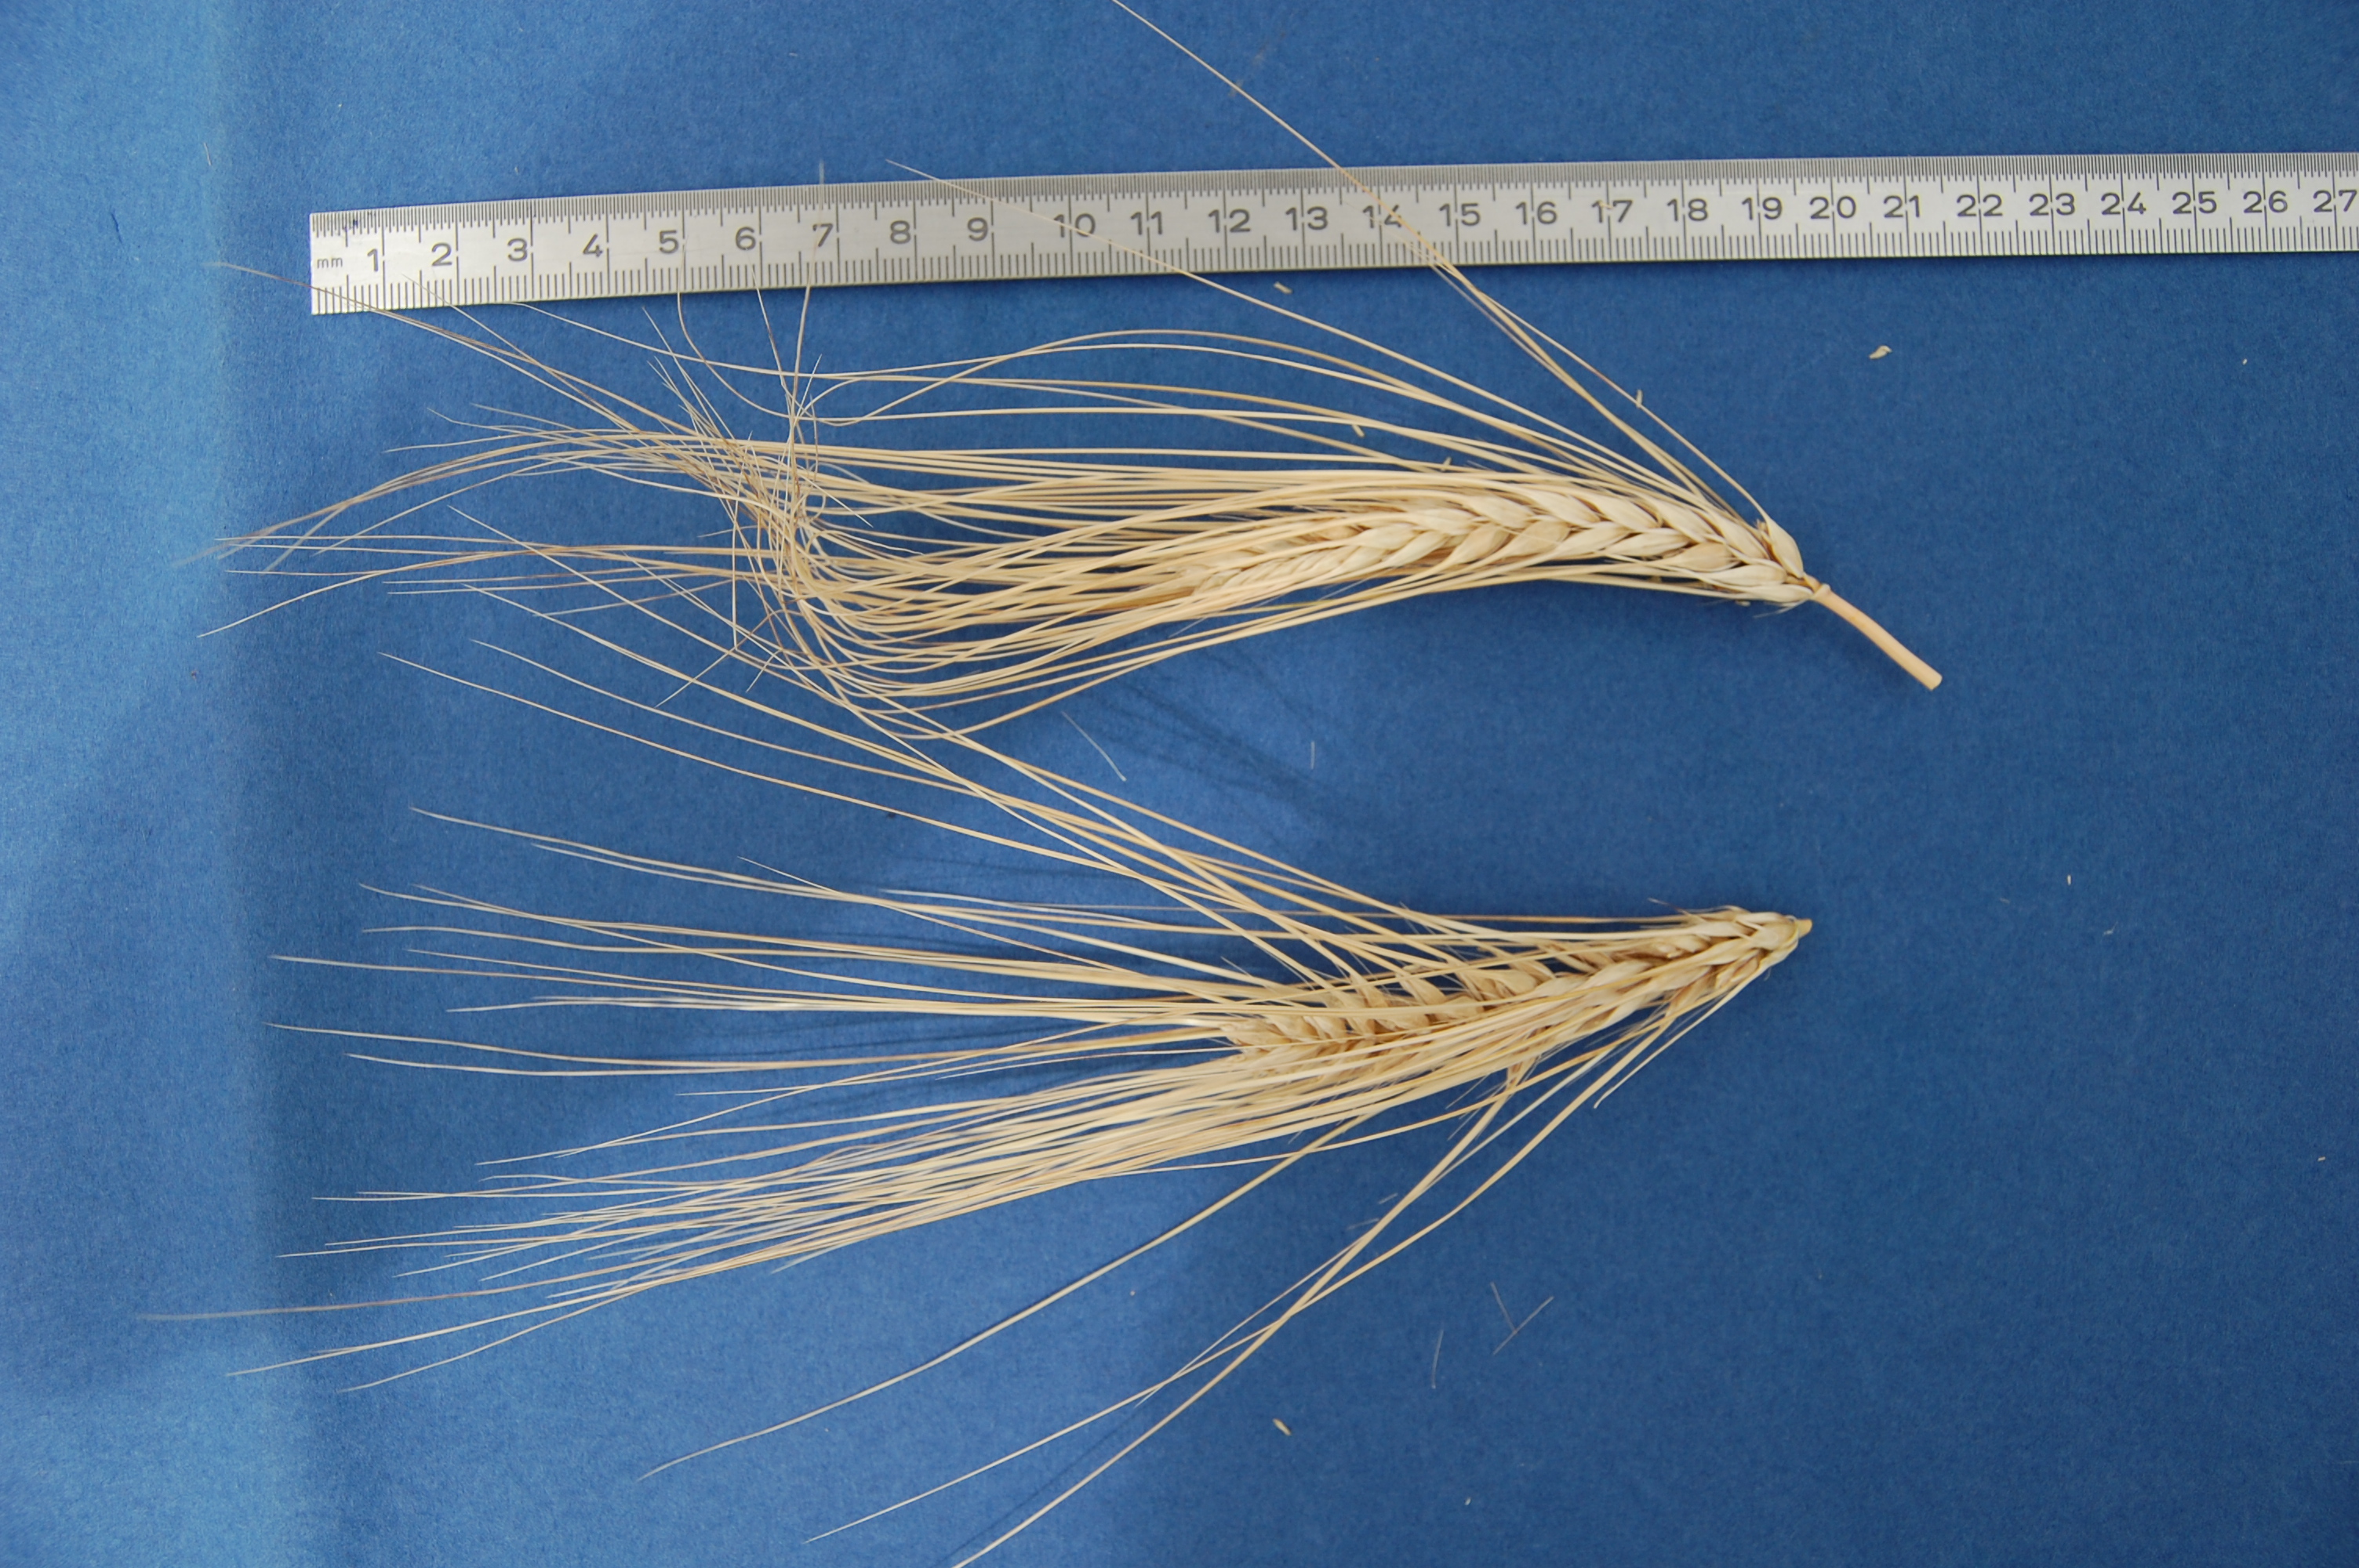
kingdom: Plantae
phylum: Tracheophyta
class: Liliopsida
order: Poales
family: Poaceae
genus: Hordeum
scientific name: Hordeum vulgare
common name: Common barley
